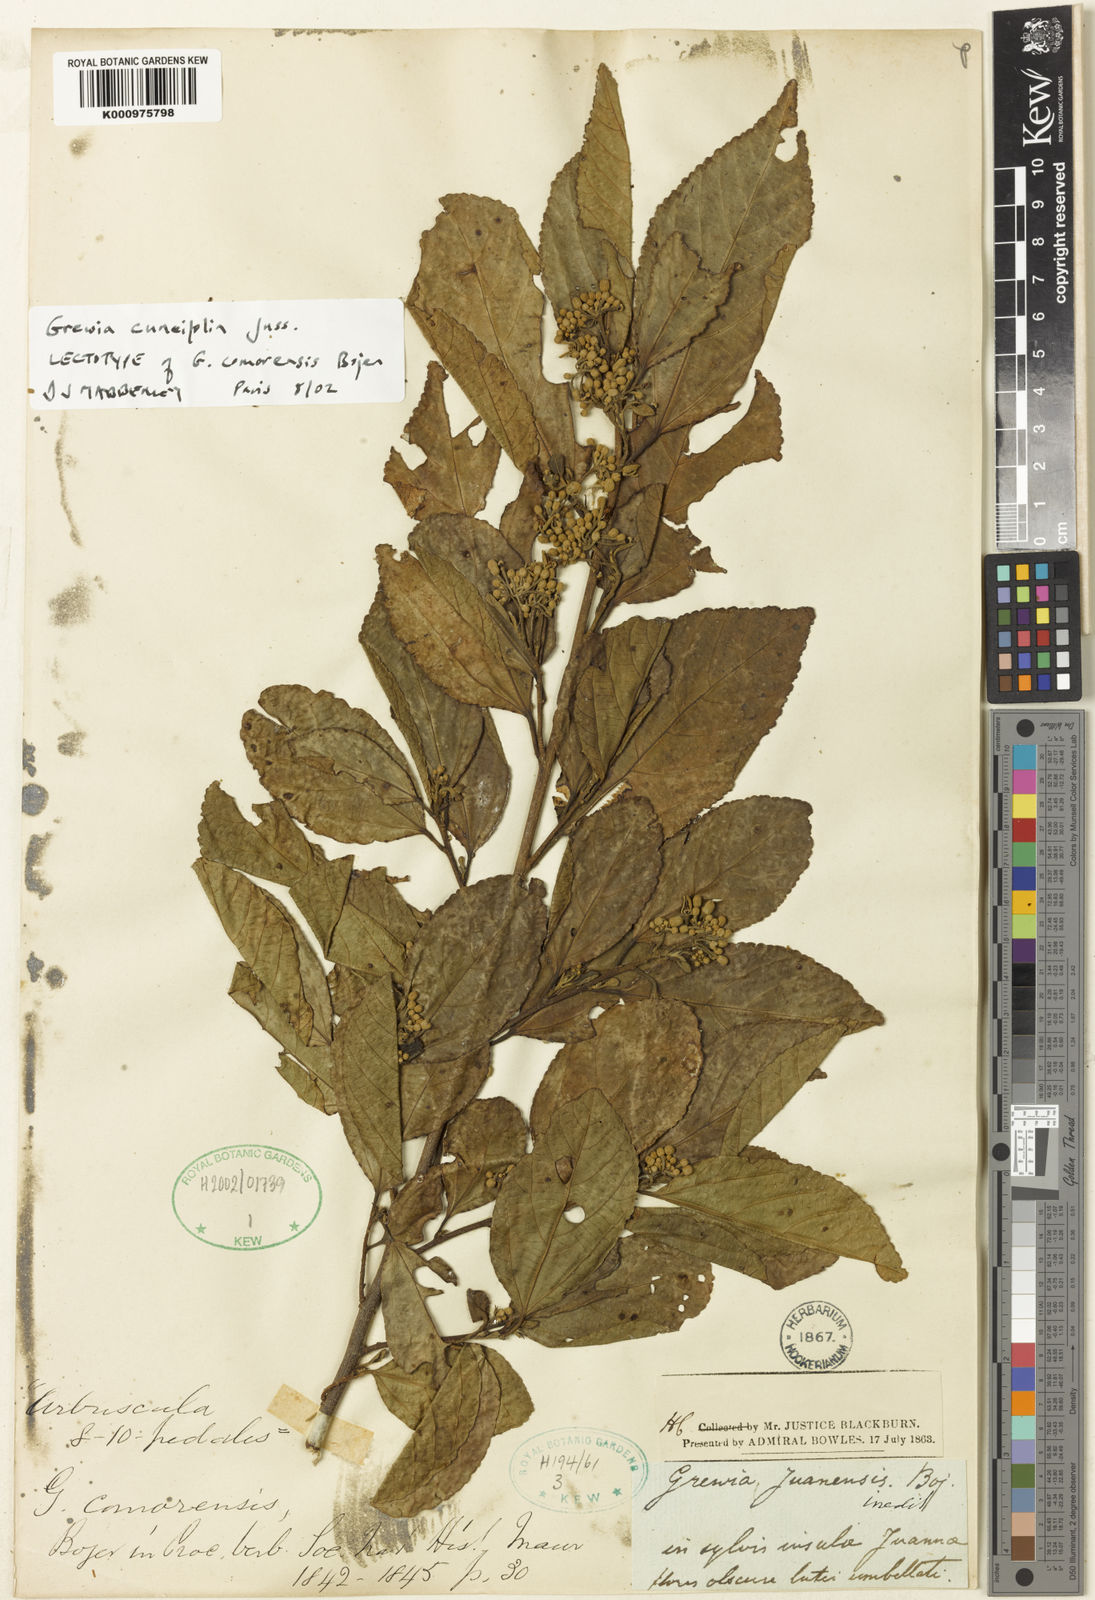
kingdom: Plantae
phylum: Tracheophyta
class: Magnoliopsida
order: Malvales
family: Malvaceae
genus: Grewia
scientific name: Grewia cuneifolia
